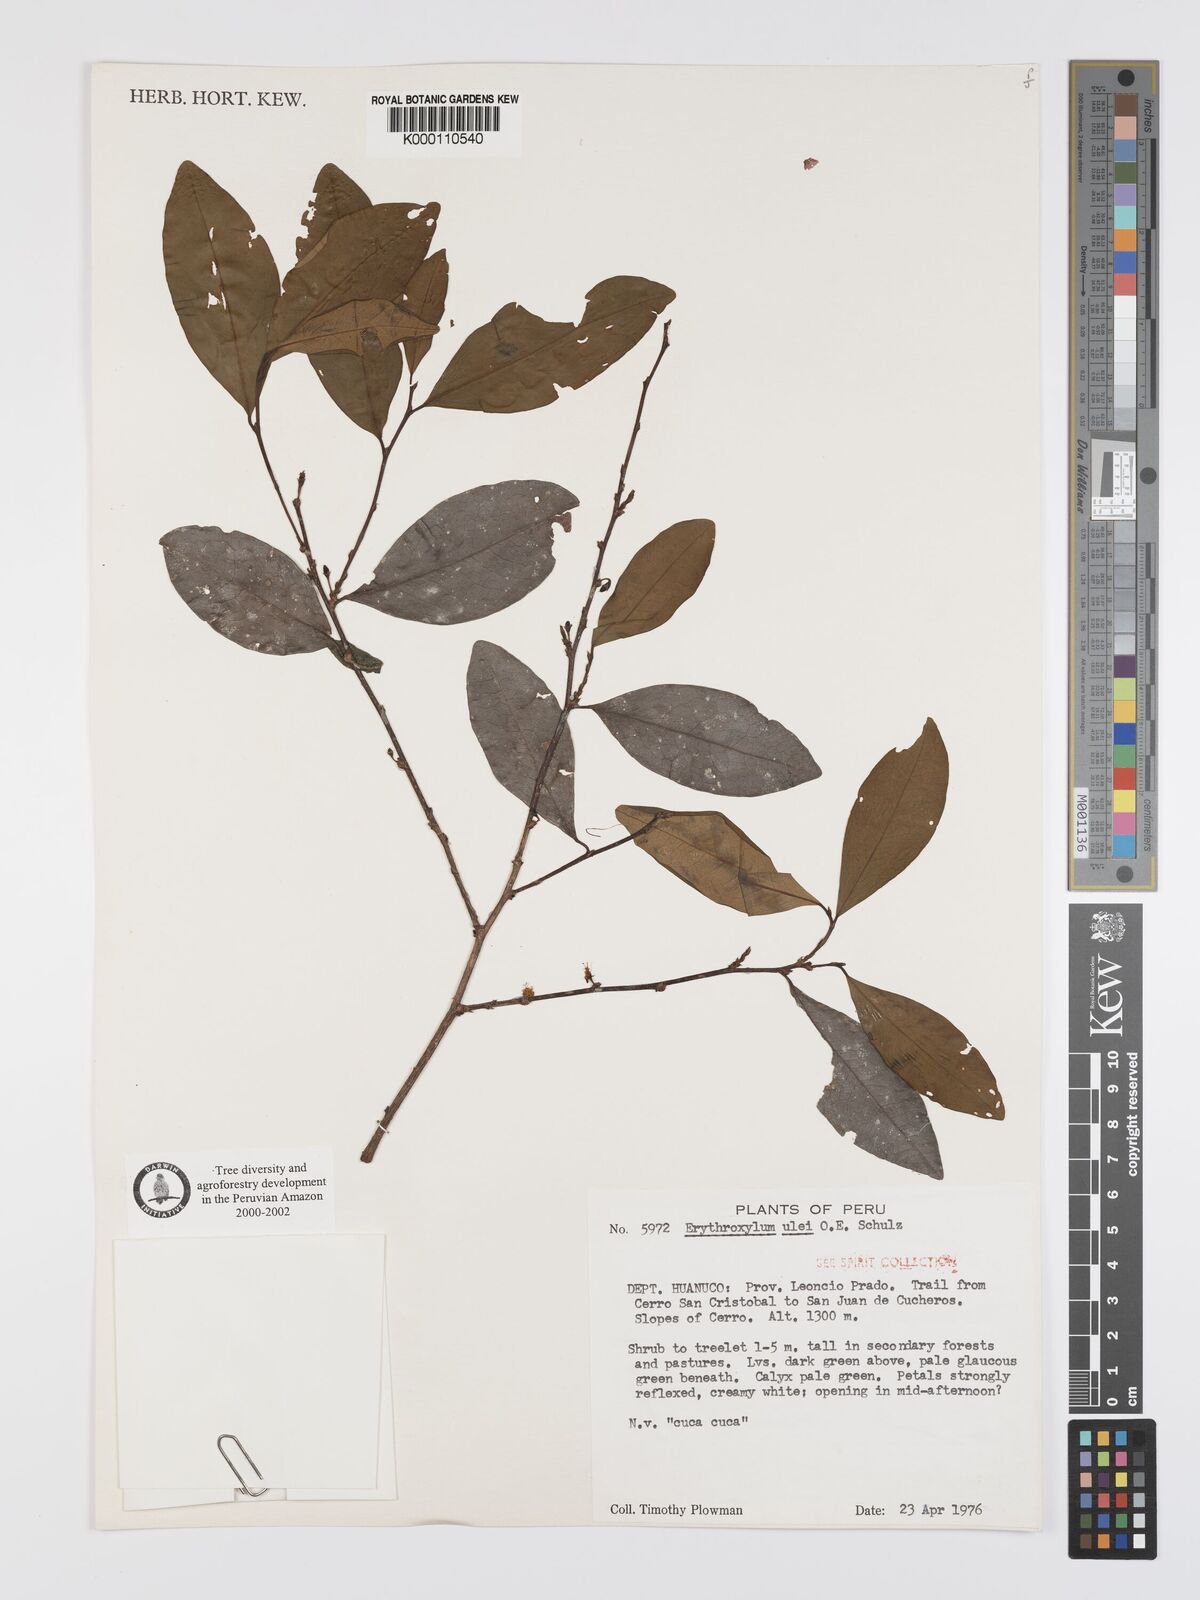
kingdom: Plantae
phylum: Tracheophyta
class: Magnoliopsida
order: Malpighiales
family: Erythroxylaceae
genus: Erythroxylum
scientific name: Erythroxylum ulei
